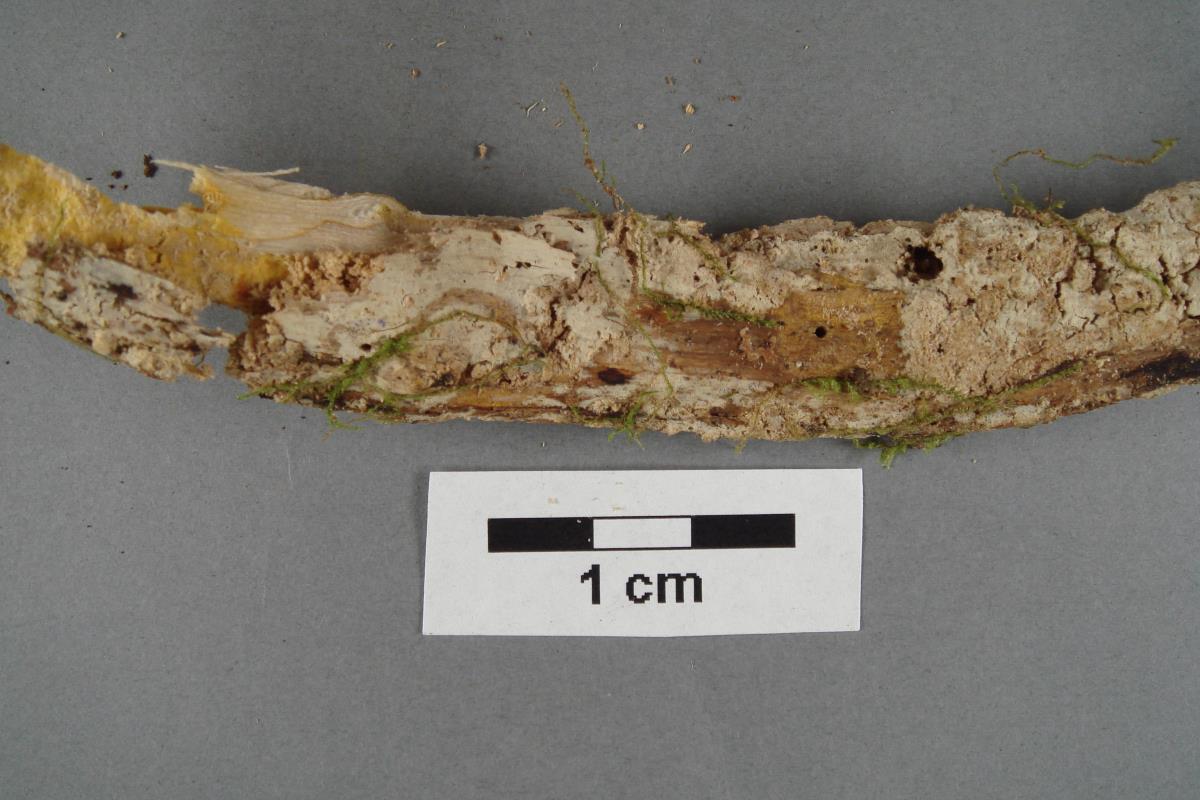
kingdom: Fungi
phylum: Basidiomycota
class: Agaricomycetes
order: Polyporales
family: Hyphodermataceae
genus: Kneiffia
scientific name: Kneiffia subalutacea
